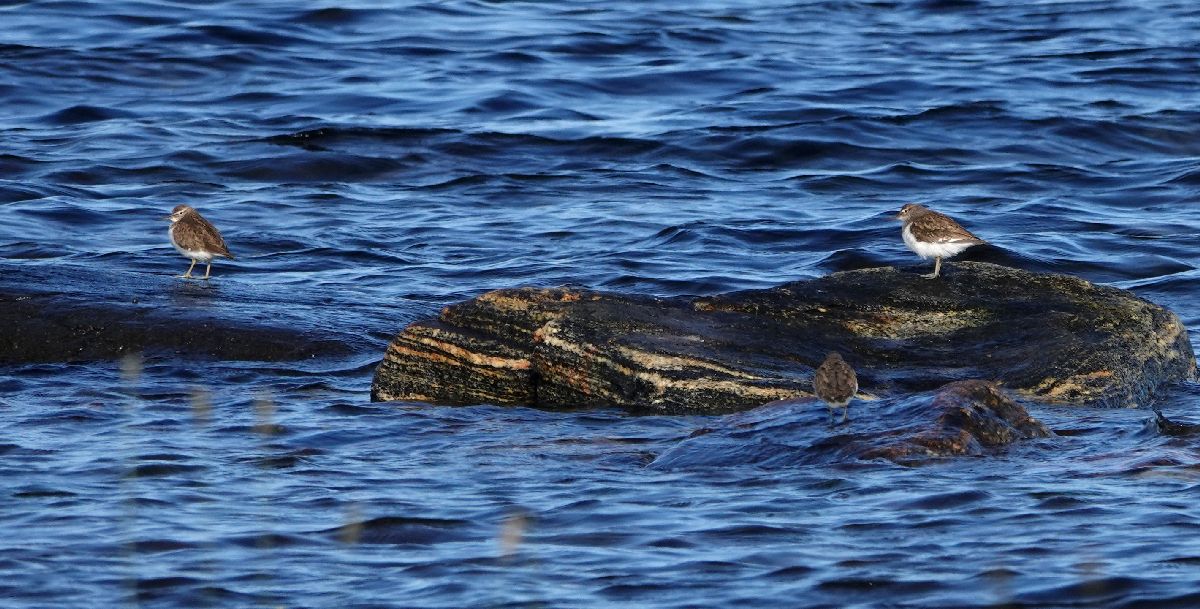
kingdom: Animalia
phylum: Chordata
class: Aves
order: Charadriiformes
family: Scolopacidae
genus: Actitis
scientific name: Actitis hypoleucos
